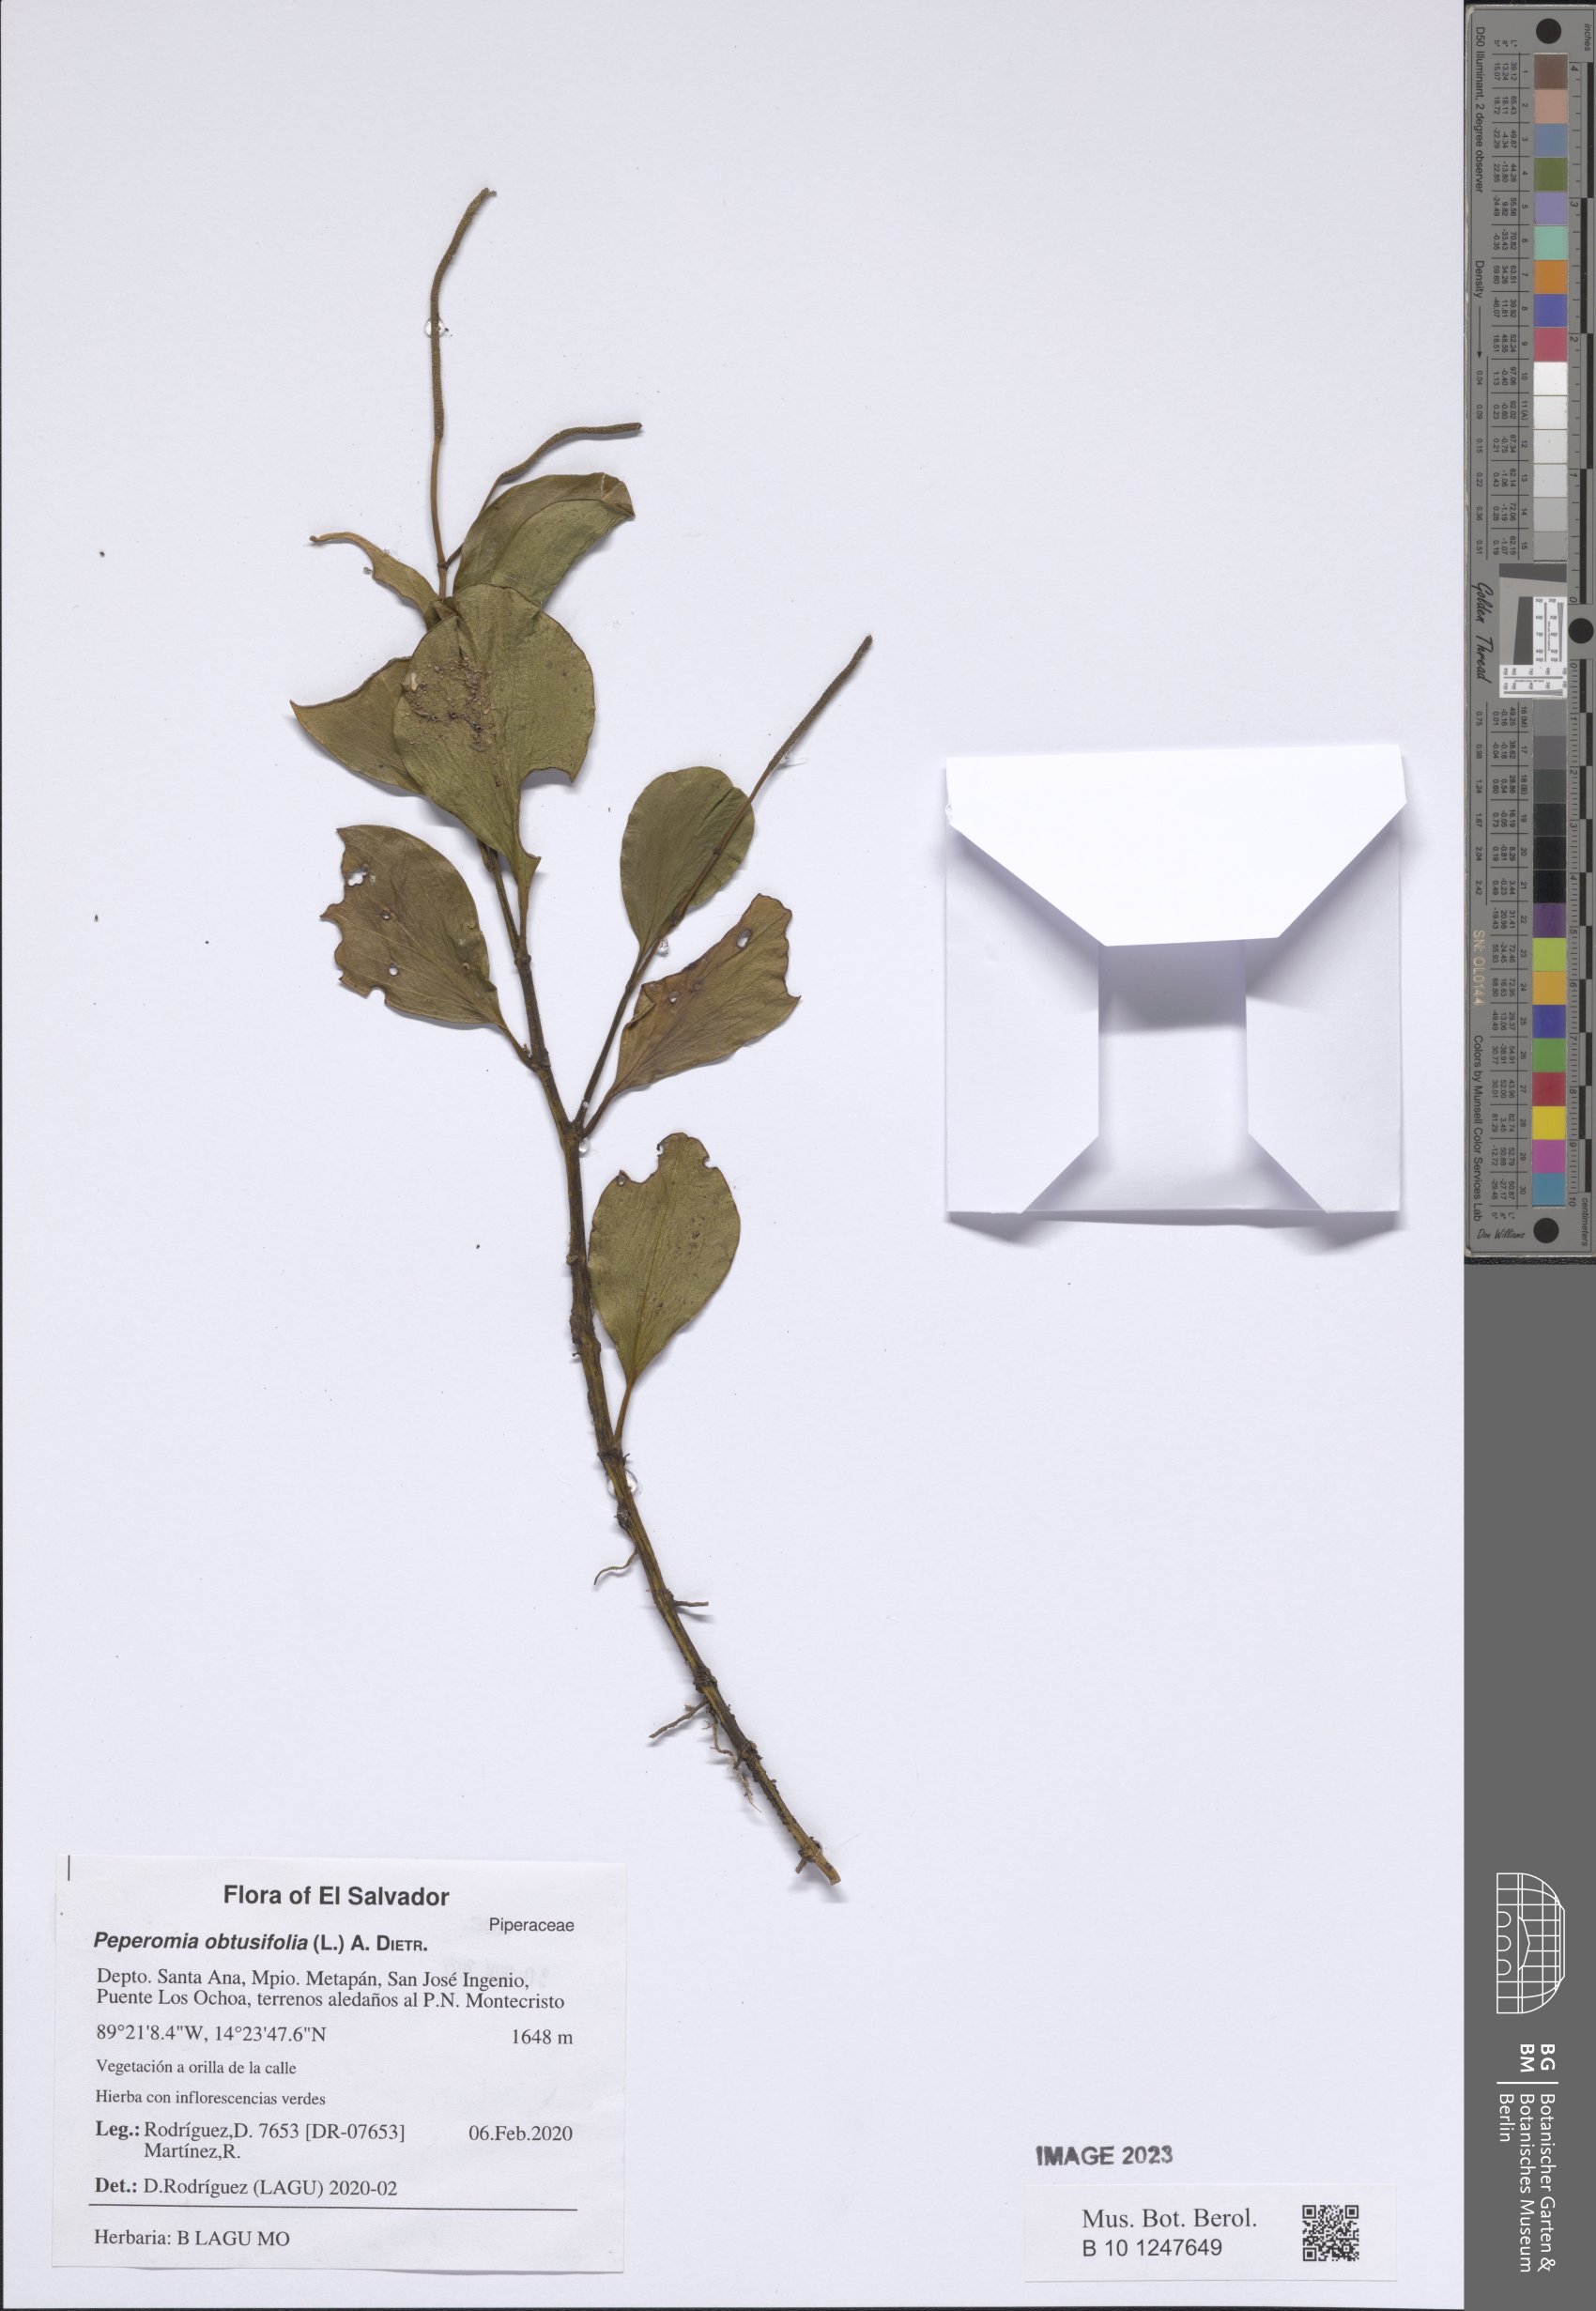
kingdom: Plantae
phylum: Tracheophyta
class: Magnoliopsida
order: Piperales
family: Piperaceae
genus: Peperomia
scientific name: Peperomia obtusifolia
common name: Baby rubberplant
